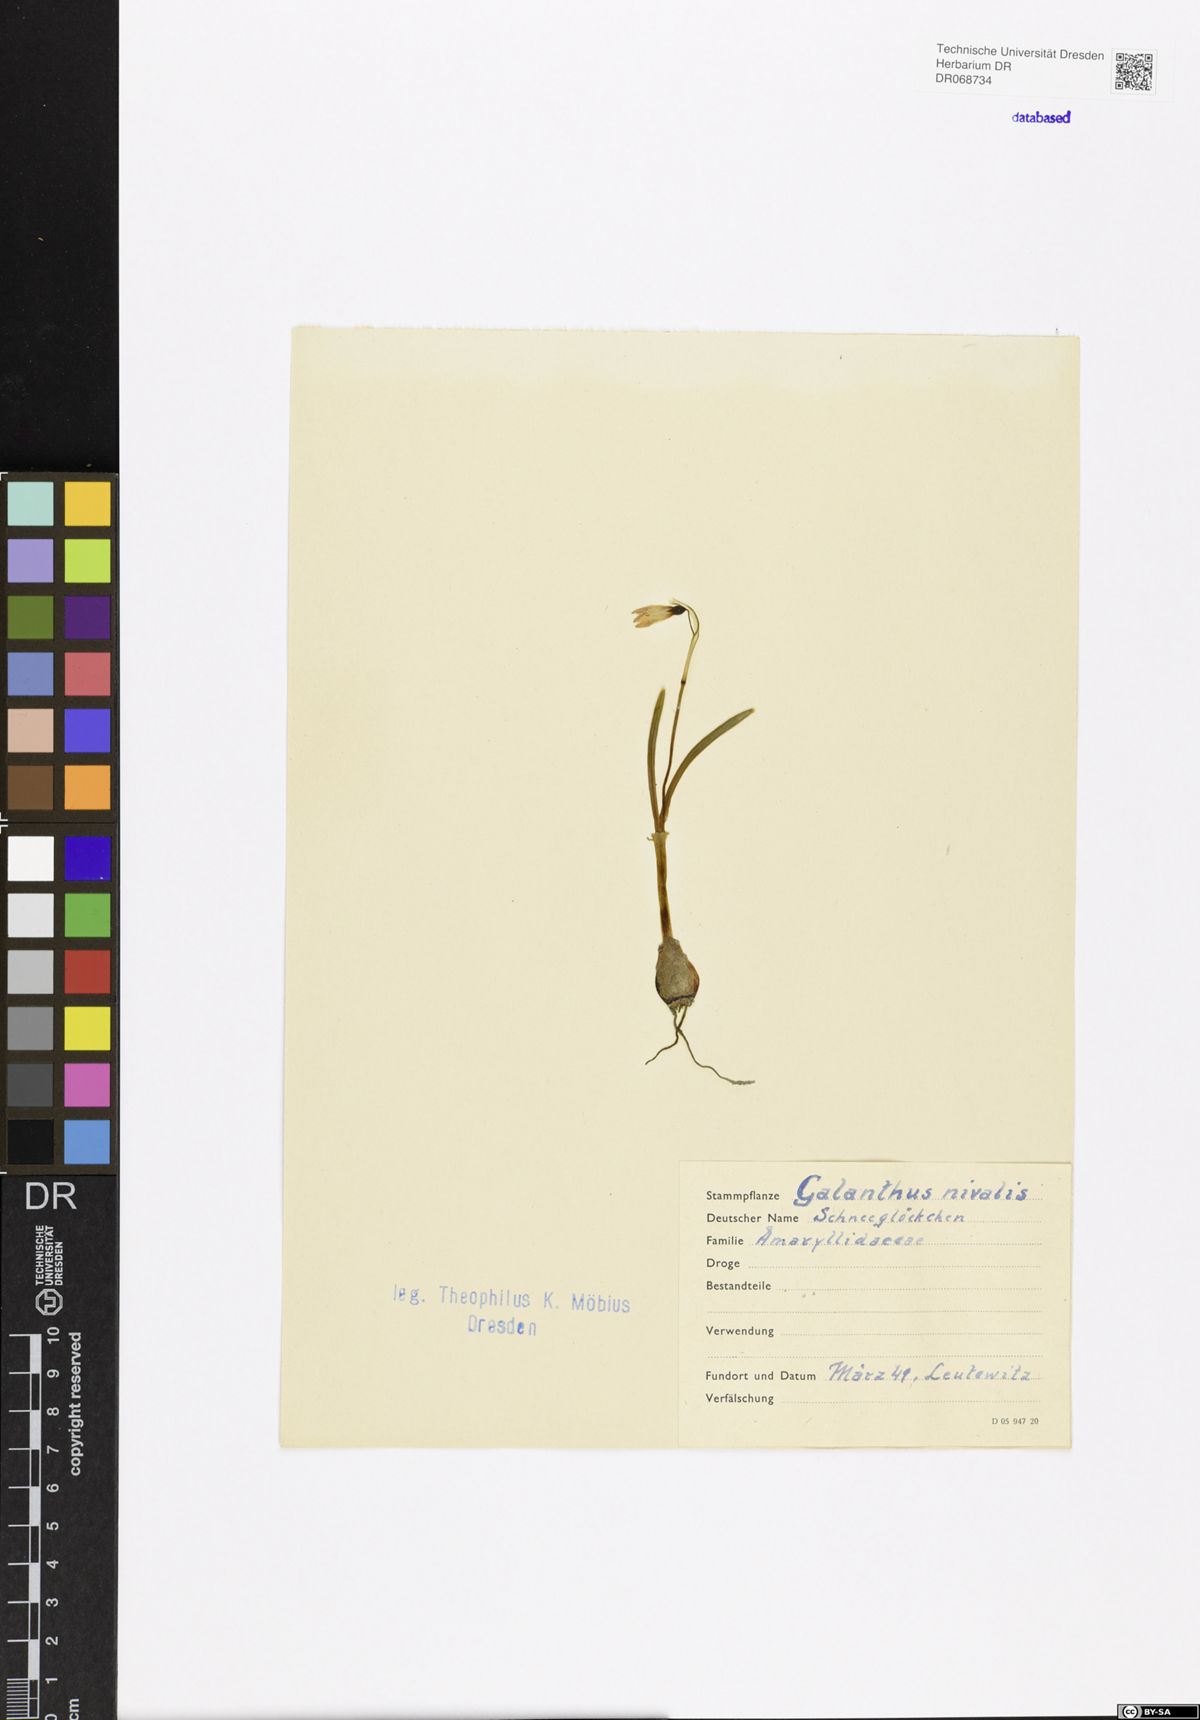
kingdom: Plantae
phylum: Tracheophyta
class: Liliopsida
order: Asparagales
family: Amaryllidaceae
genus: Galanthus
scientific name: Galanthus nivalis
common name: Snowdrop
